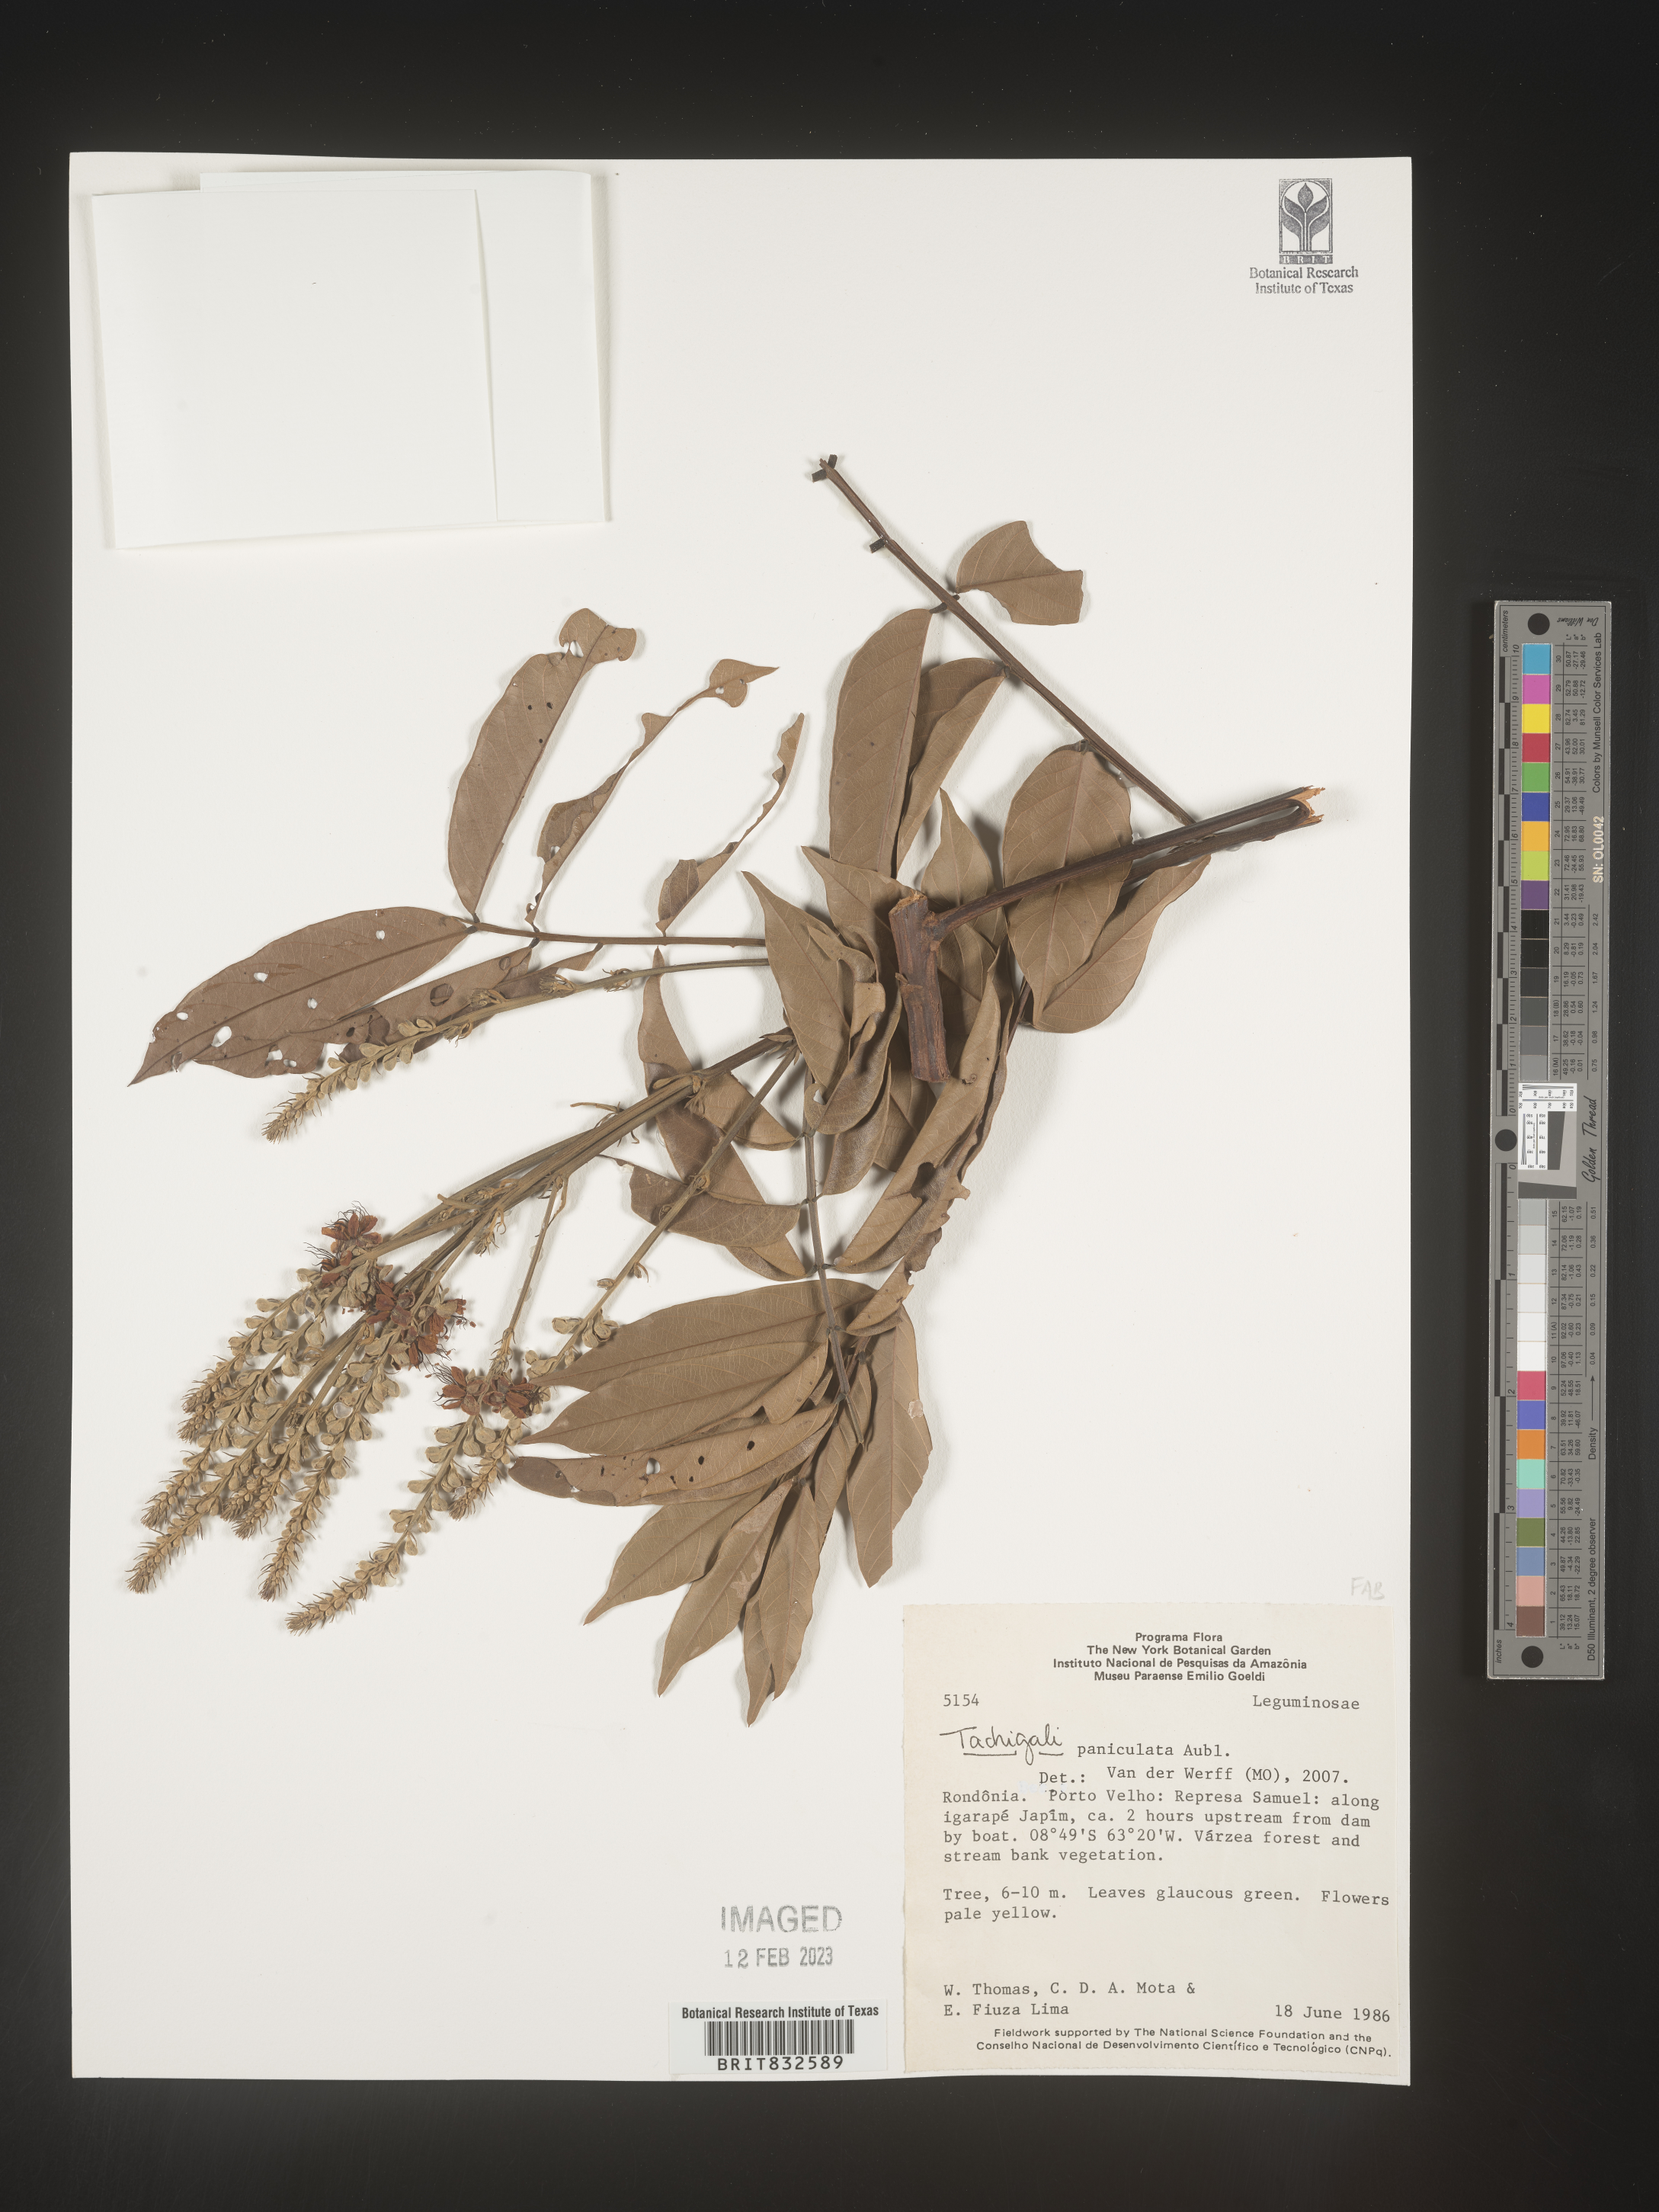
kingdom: Plantae
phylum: Tracheophyta
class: Magnoliopsida
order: Fabales
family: Fabaceae
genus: Tachigali
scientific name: Tachigali
